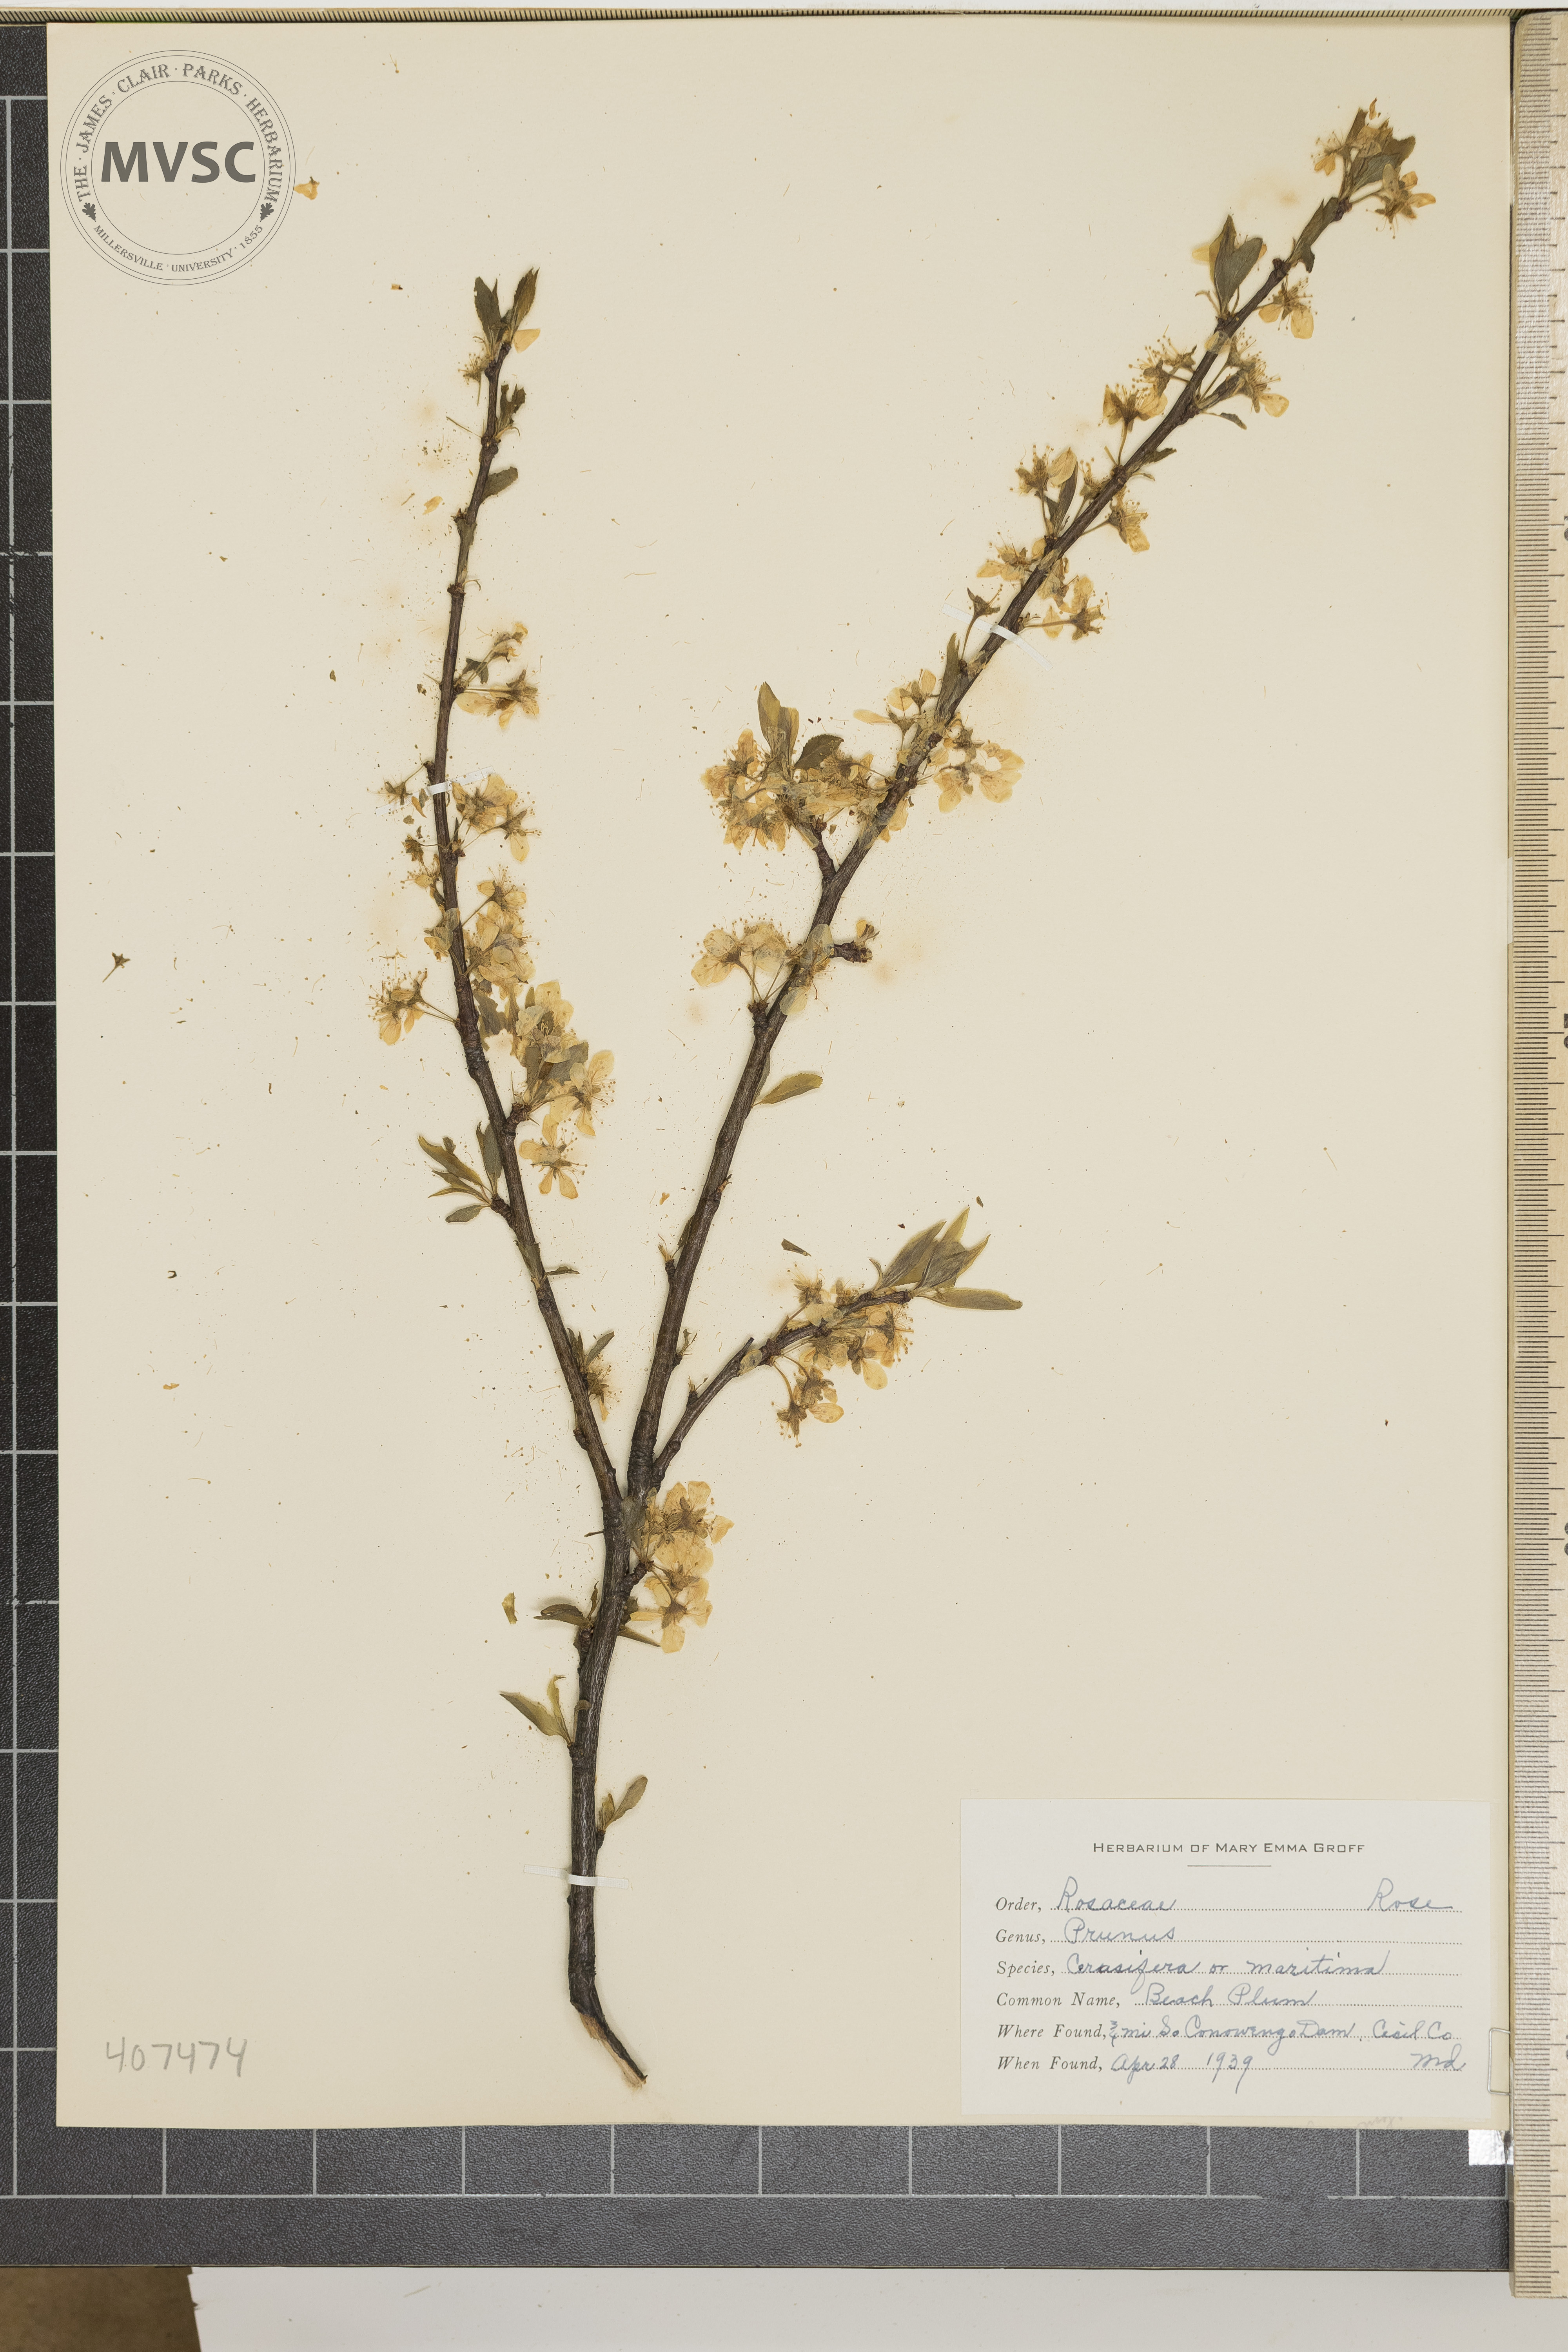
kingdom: Plantae
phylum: Tracheophyta
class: Magnoliopsida
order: Rosales
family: Rosaceae
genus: Prunus
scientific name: Prunus cerasifera
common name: Beach Plum
